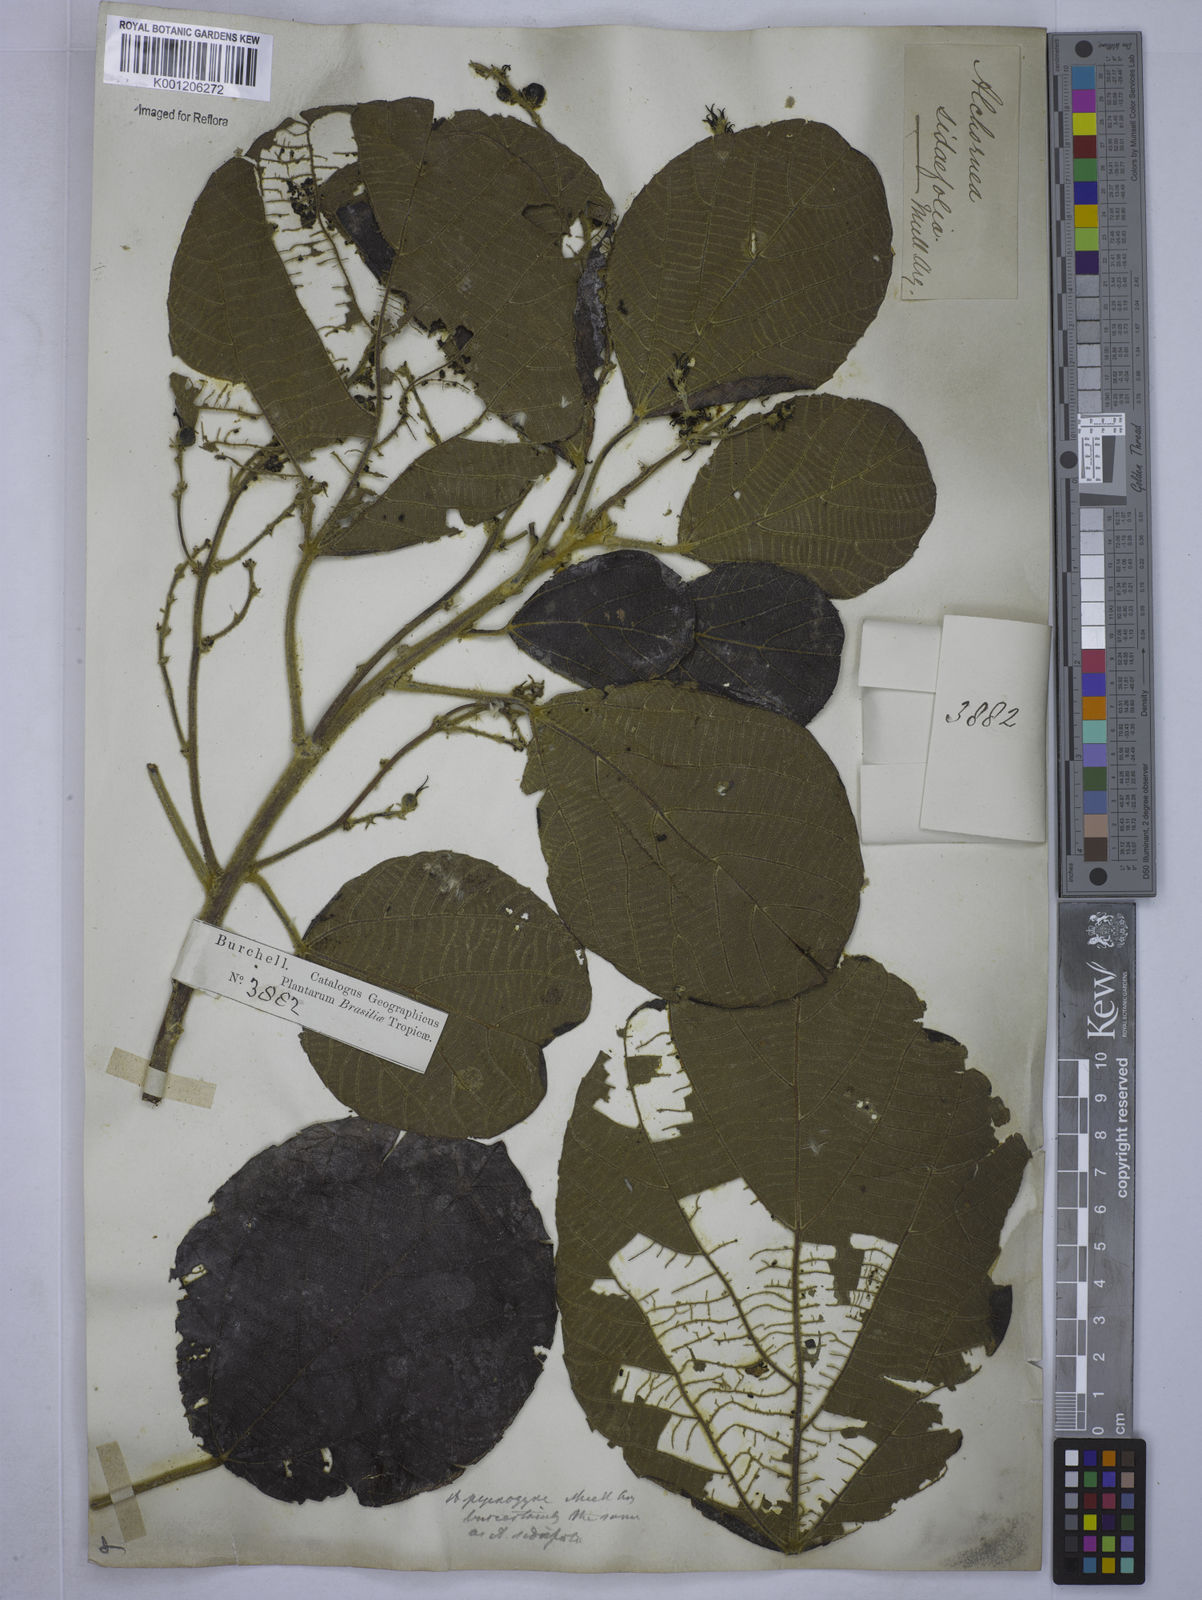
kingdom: Plantae
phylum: Tracheophyta
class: Magnoliopsida
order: Malpighiales
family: Euphorbiaceae
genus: Alchornea
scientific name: Alchornea
